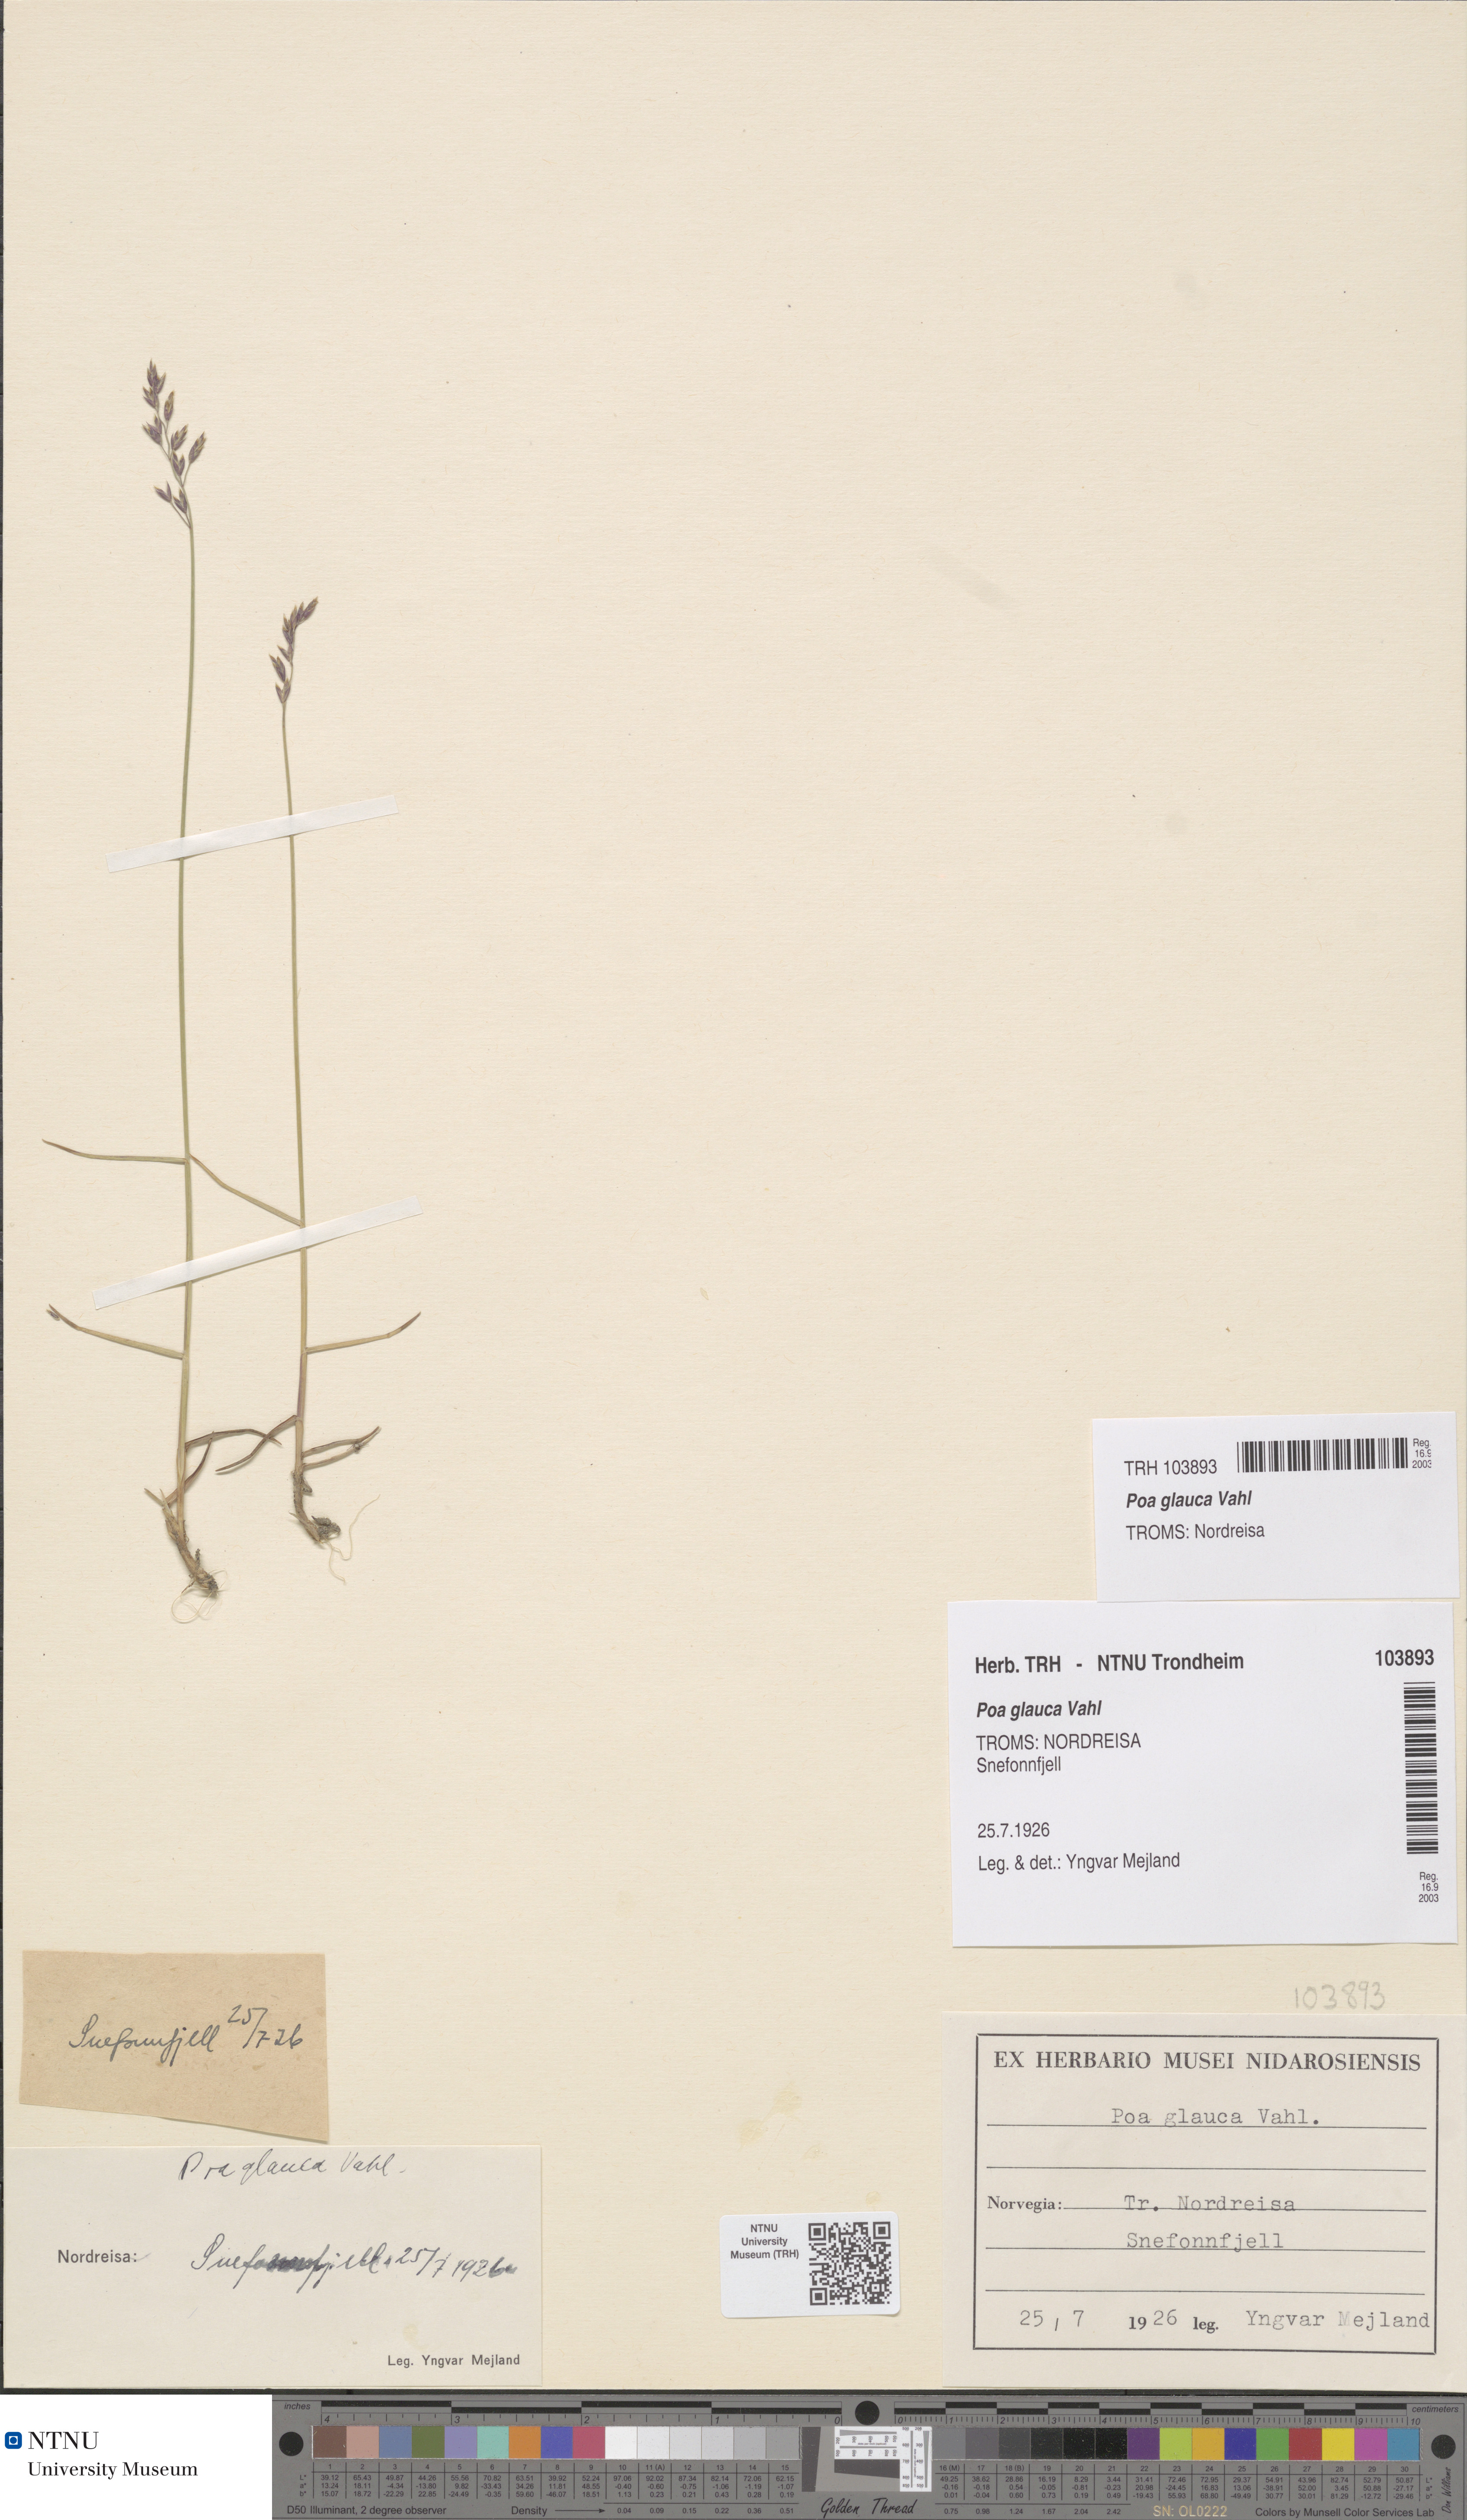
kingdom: Plantae
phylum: Tracheophyta
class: Liliopsida
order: Poales
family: Poaceae
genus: Poa
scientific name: Poa glauca
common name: Glaucous bluegrass
